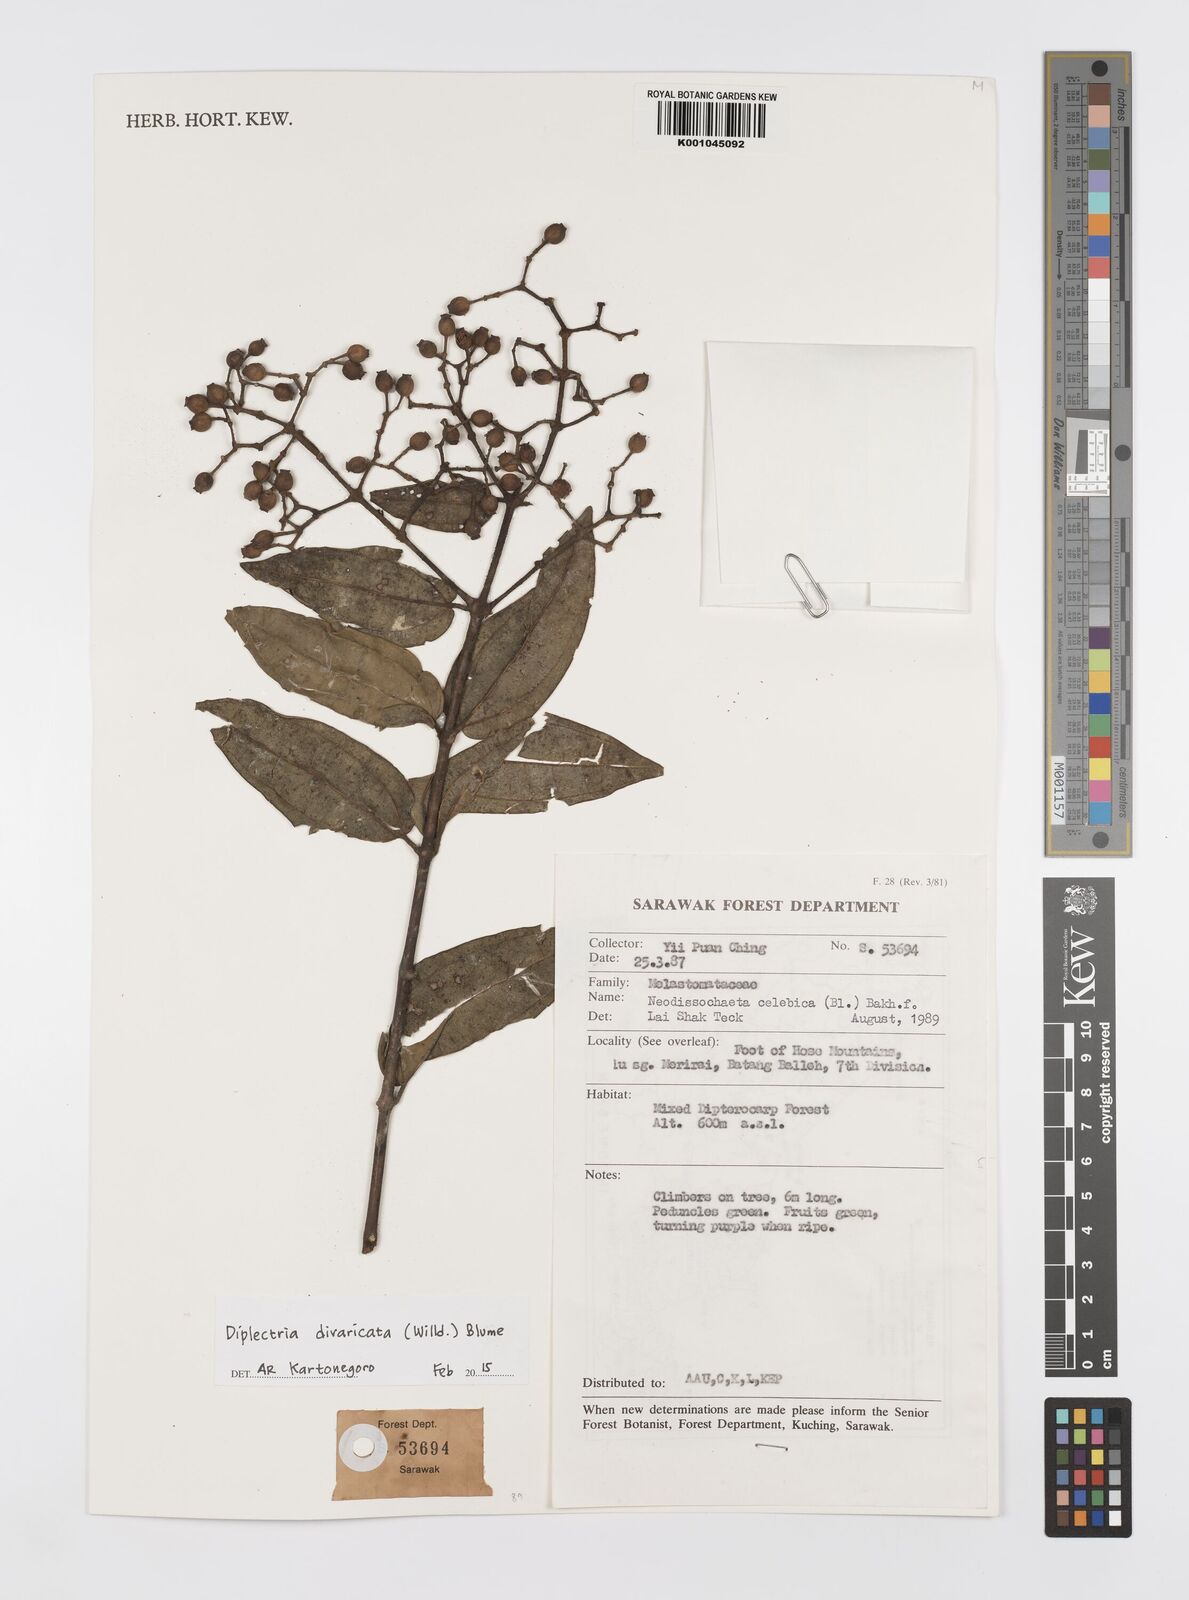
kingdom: Plantae
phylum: Tracheophyta
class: Magnoliopsida
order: Myrtales
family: Melastomataceae
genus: Diplectria
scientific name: Diplectria
